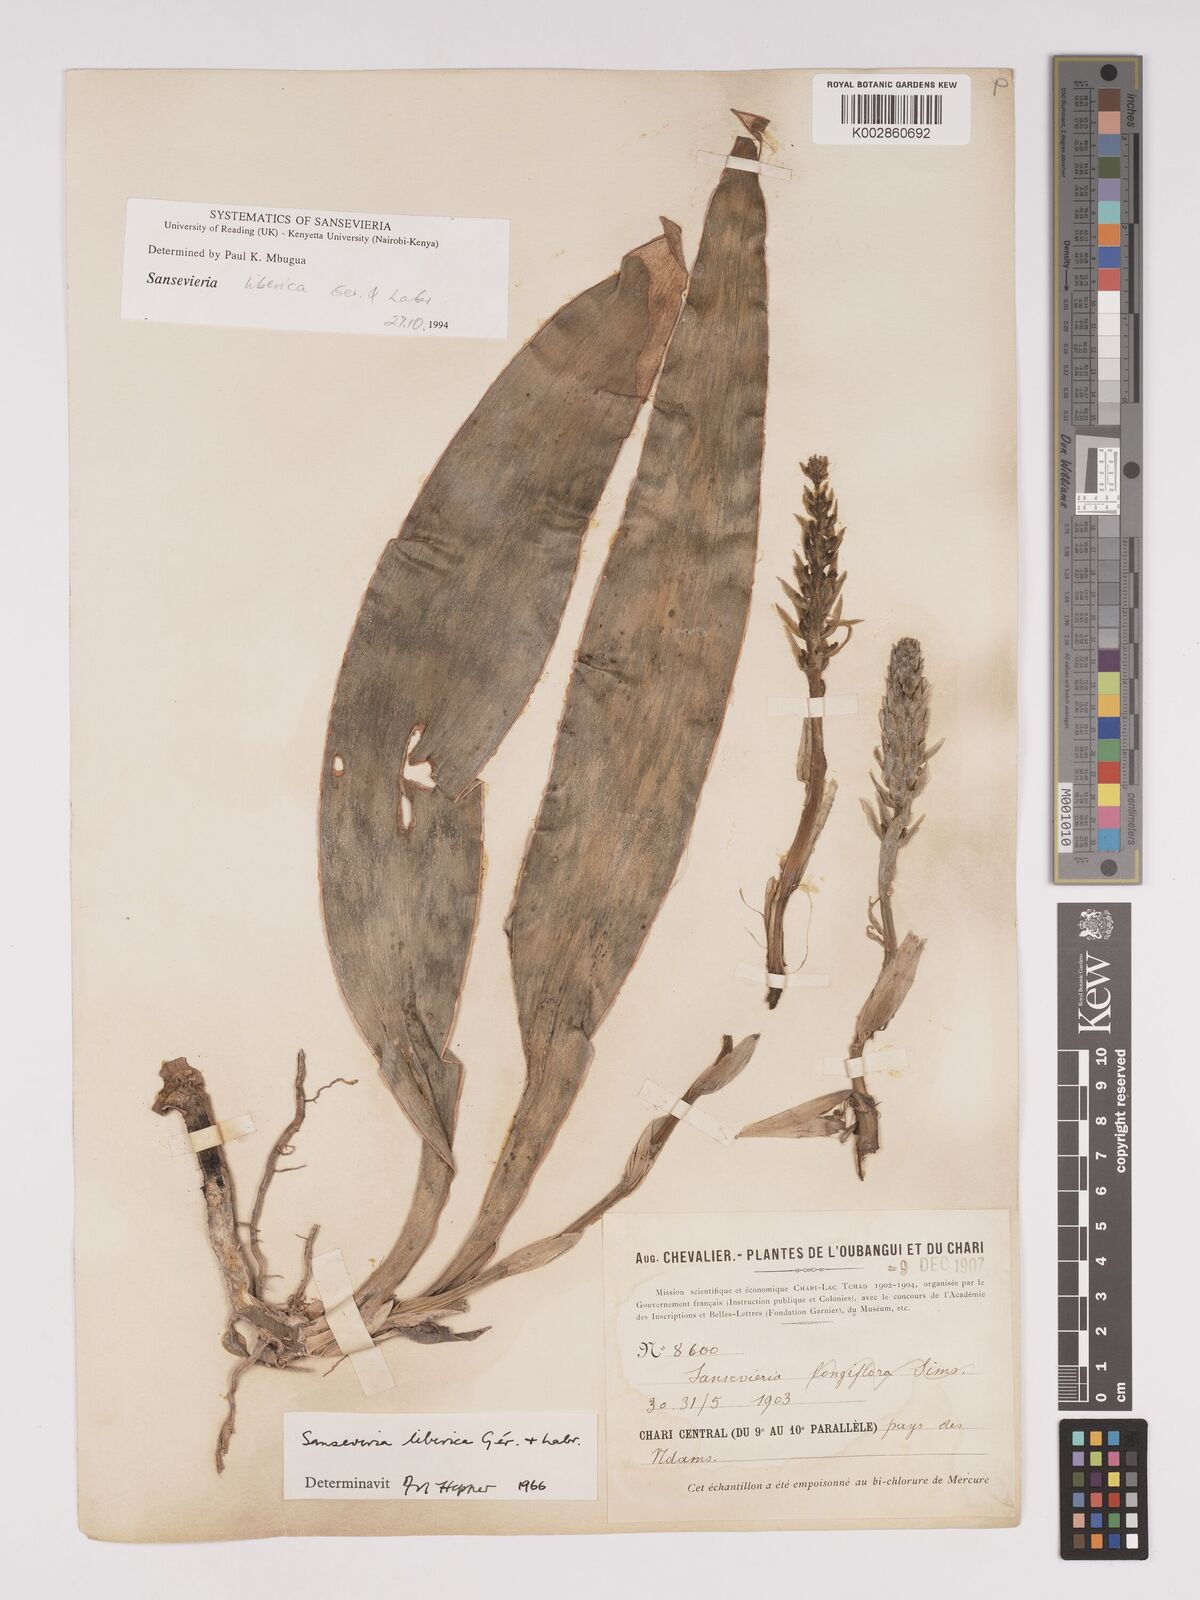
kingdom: Plantae
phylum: Tracheophyta
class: Liliopsida
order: Asparagales
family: Asparagaceae
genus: Dracaena
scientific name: Dracaena liberica
